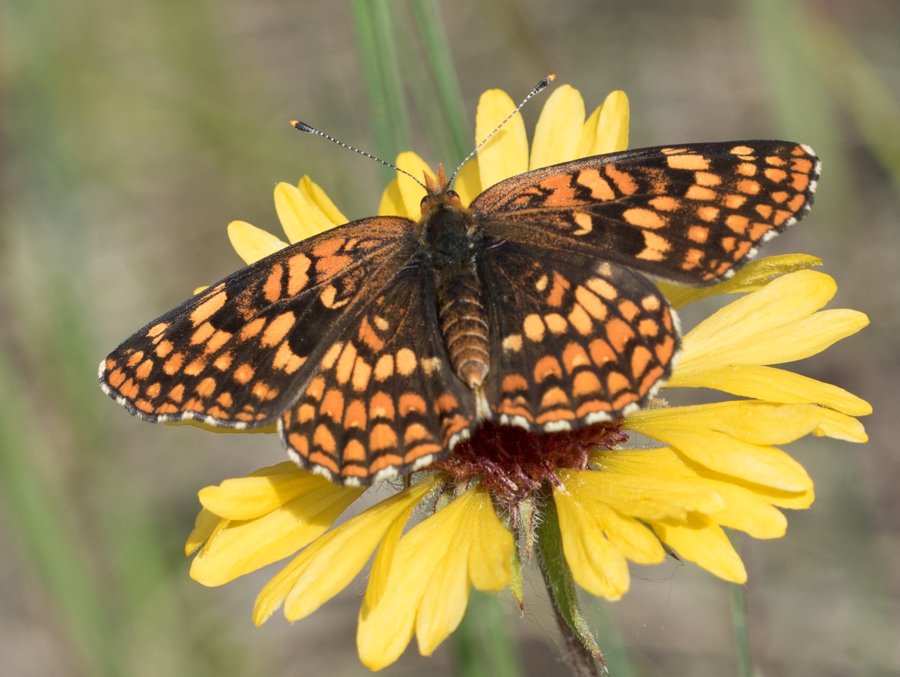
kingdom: Animalia
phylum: Arthropoda
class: Insecta
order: Lepidoptera
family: Nymphalidae
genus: Chlosyne
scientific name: Chlosyne palla
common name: Northern Checkerspot
